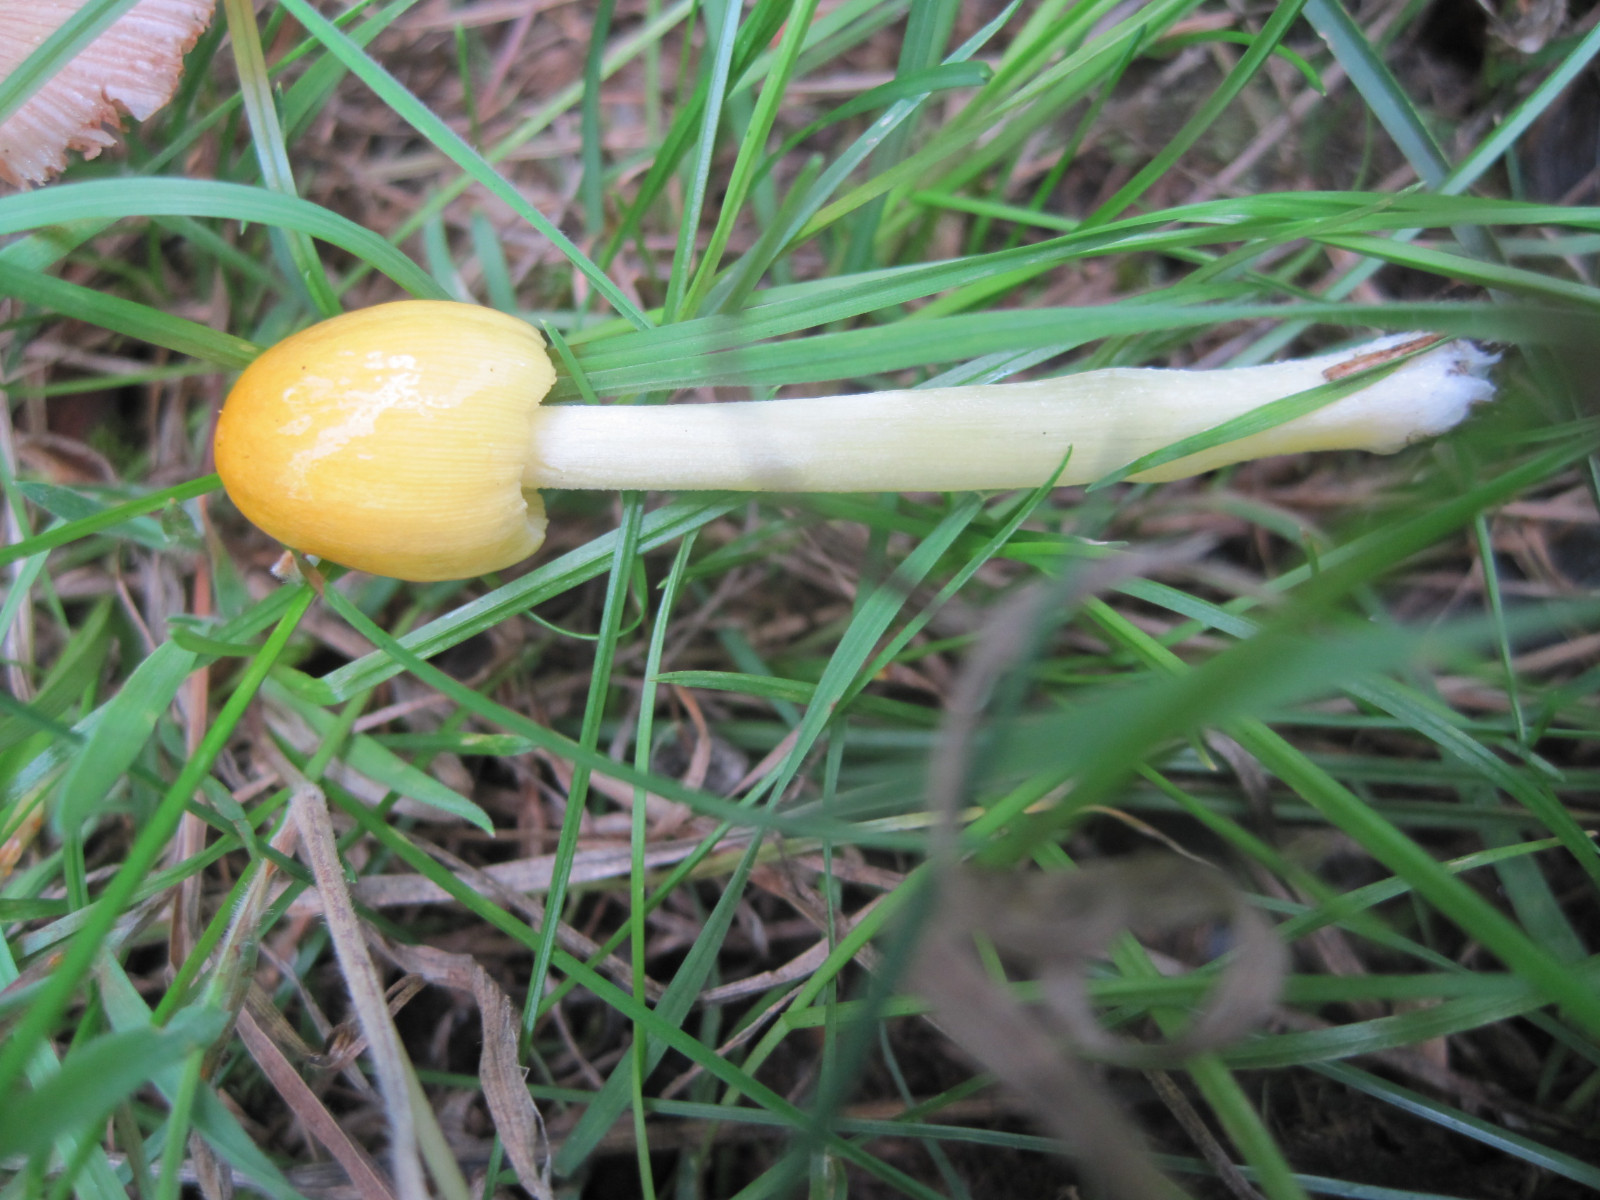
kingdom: Fungi
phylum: Basidiomycota
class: Agaricomycetes
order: Agaricales
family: Bolbitiaceae
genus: Bolbitius
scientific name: Bolbitius titubans
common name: almindelig gulhat
